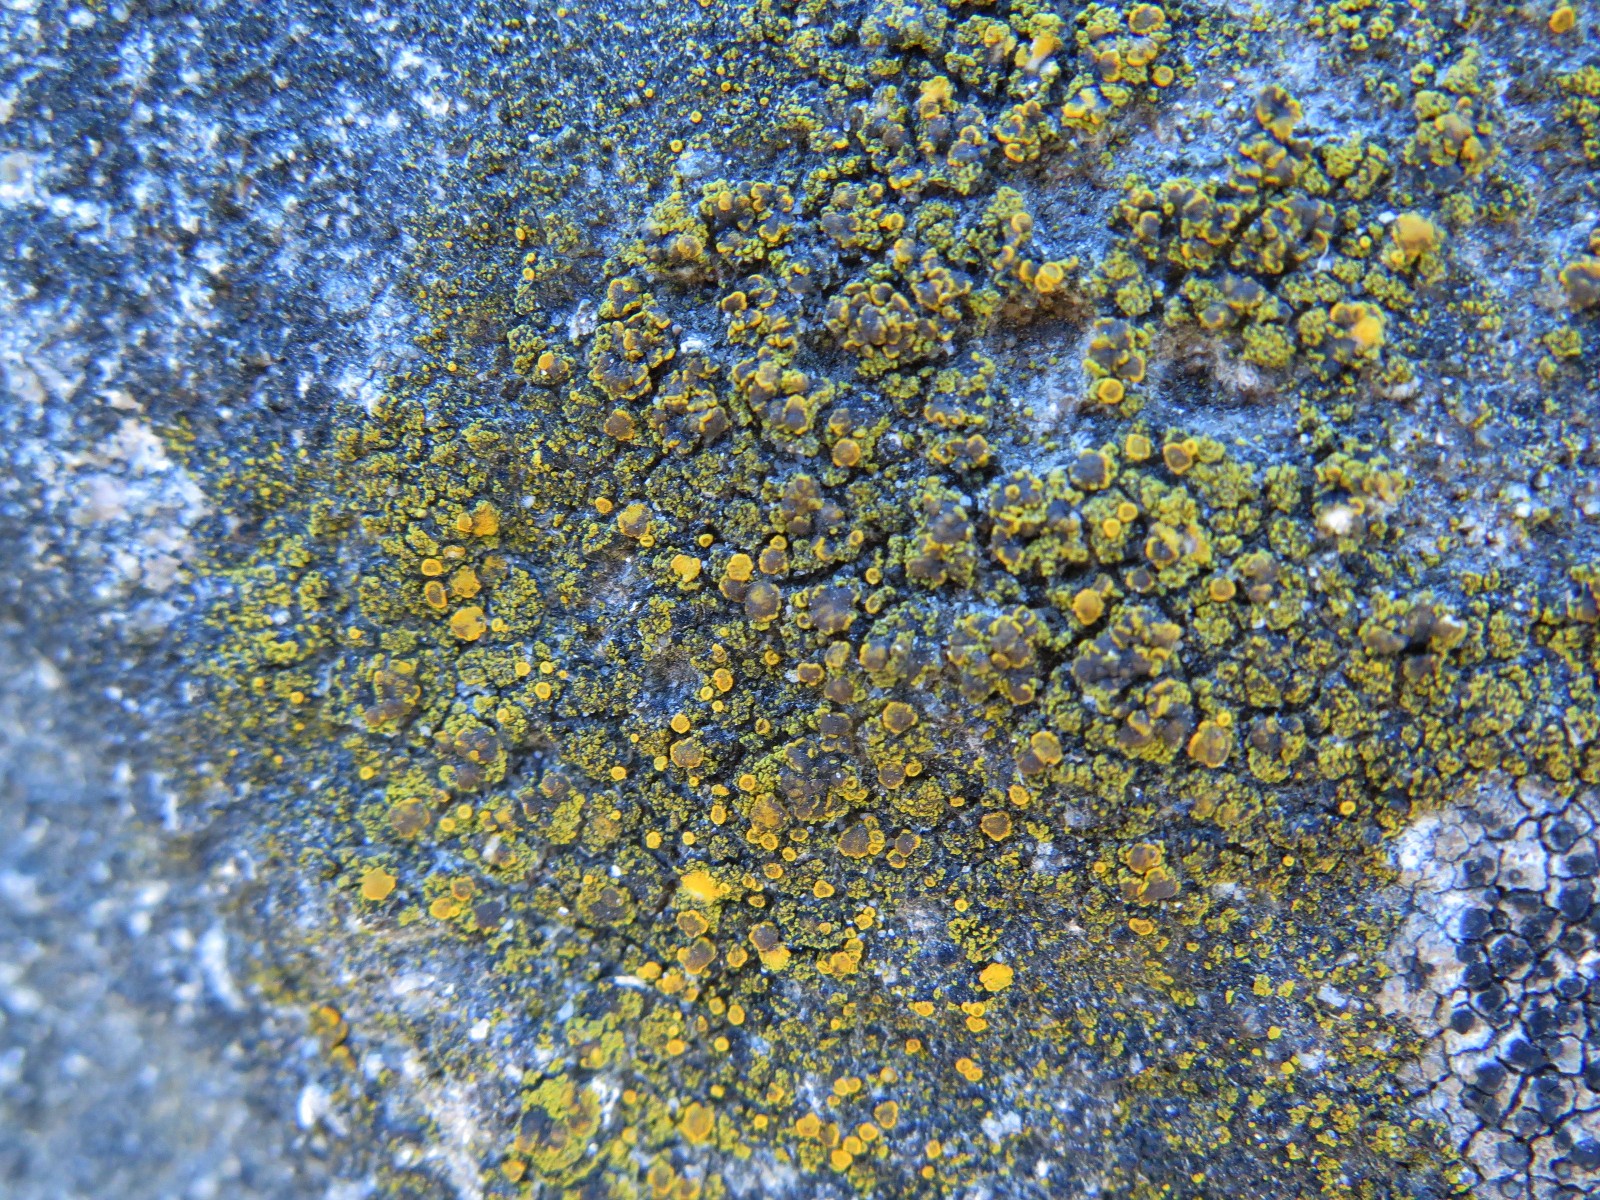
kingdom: Fungi
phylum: Ascomycota
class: Candelariomycetes
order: Candelariales
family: Candelariaceae
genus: Candelariella
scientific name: Candelariella vitellina
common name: almindelig æggeblommelav
